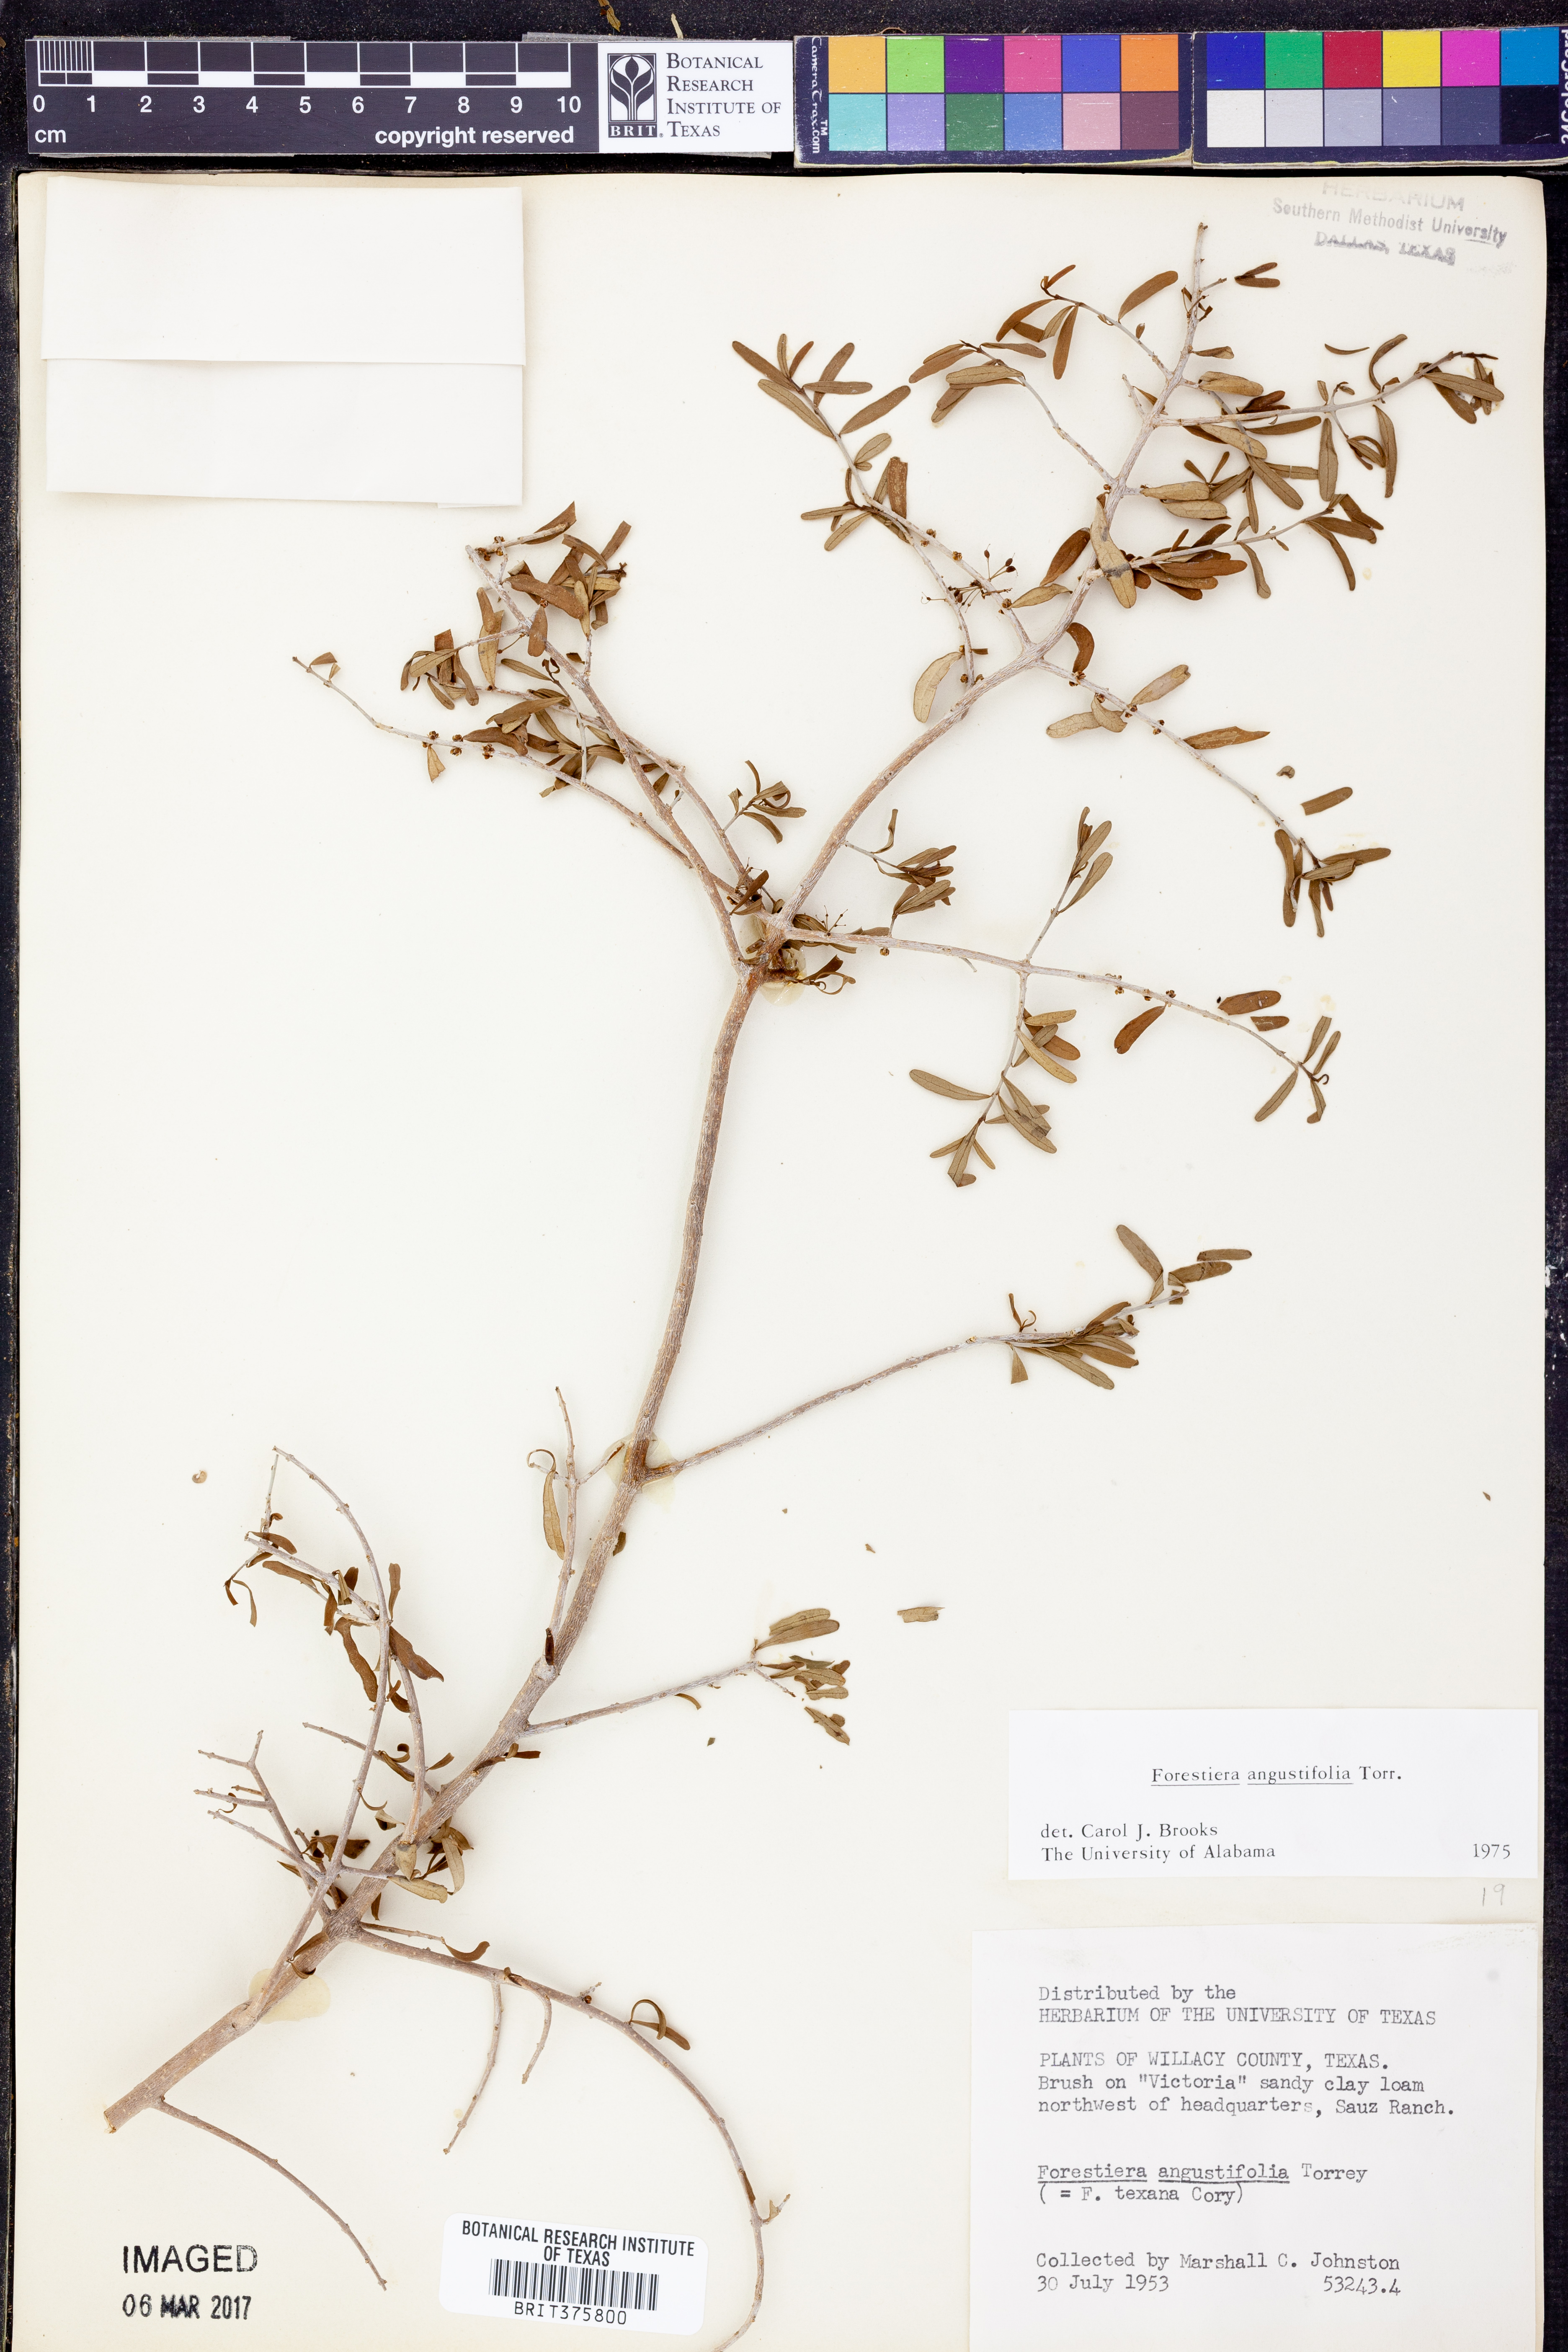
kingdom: Plantae
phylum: Tracheophyta
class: Magnoliopsida
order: Lamiales
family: Oleaceae
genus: Forestiera
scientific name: Forestiera angustifolia
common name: Elbowbush
